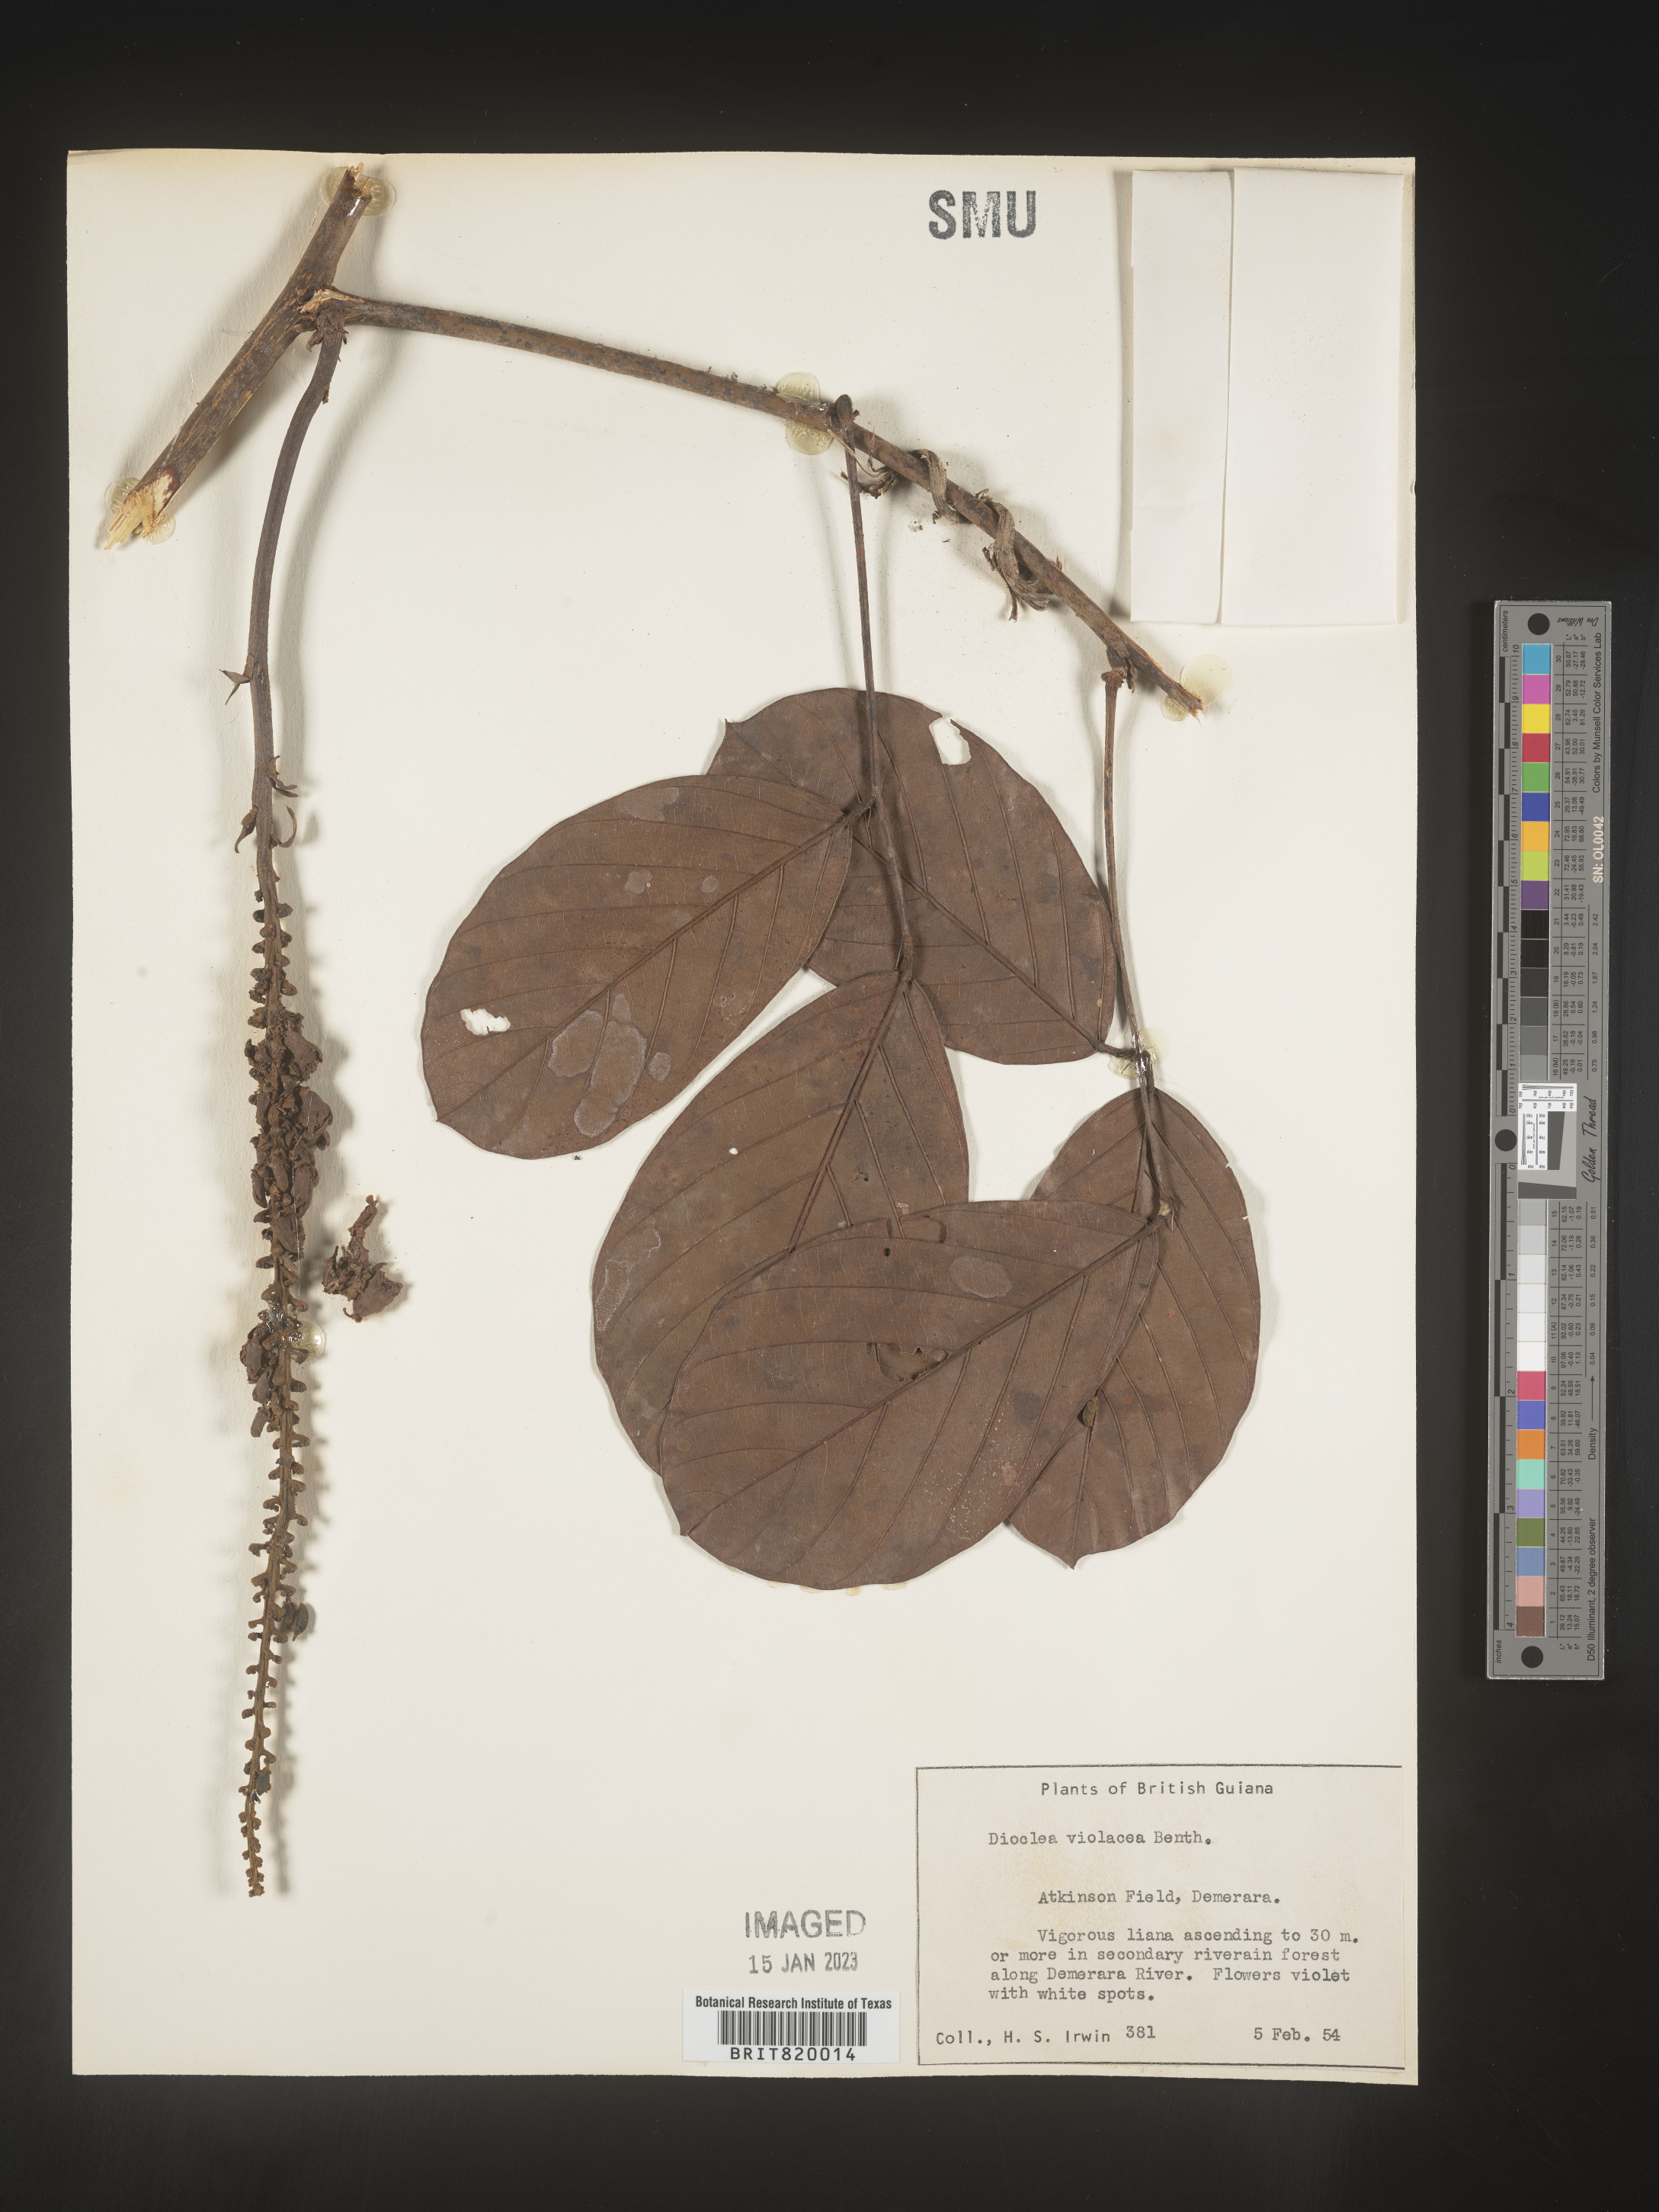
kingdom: Plantae
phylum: Tracheophyta
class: Magnoliopsida
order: Fabales
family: Fabaceae
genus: Dioclea
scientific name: Dioclea
